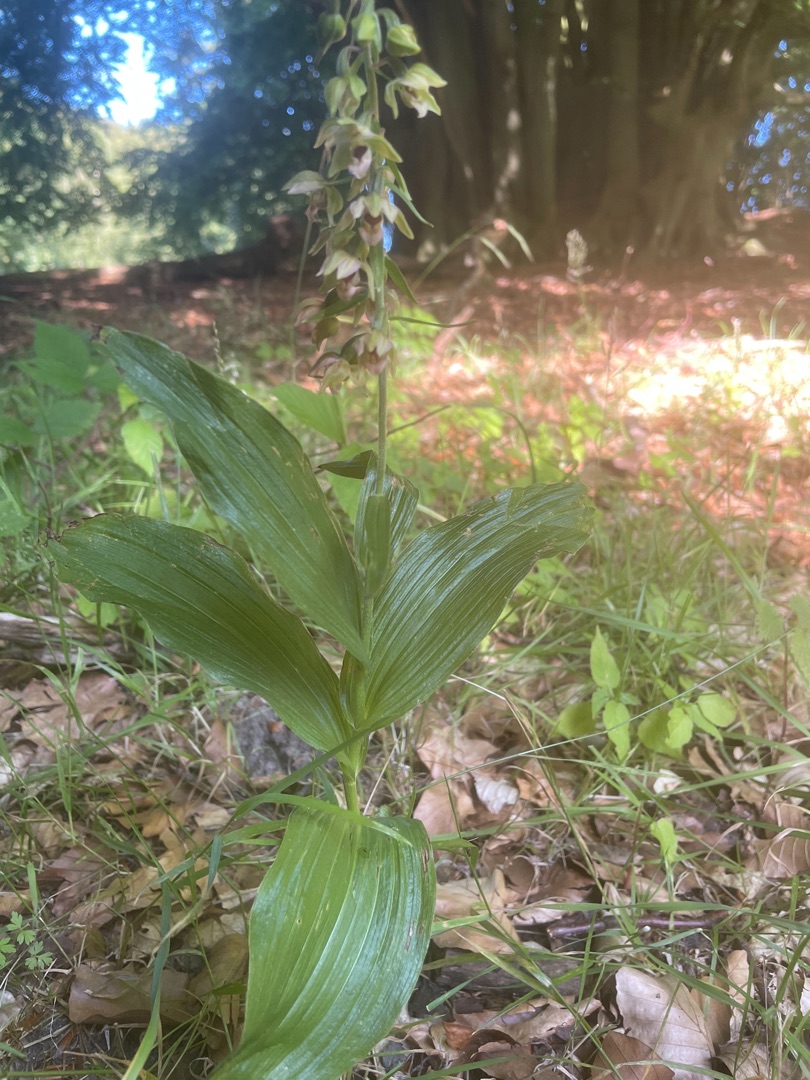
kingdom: Plantae
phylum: Tracheophyta
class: Liliopsida
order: Asparagales
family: Orchidaceae
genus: Epipactis
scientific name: Epipactis helleborine
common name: Skov-hullæbe
